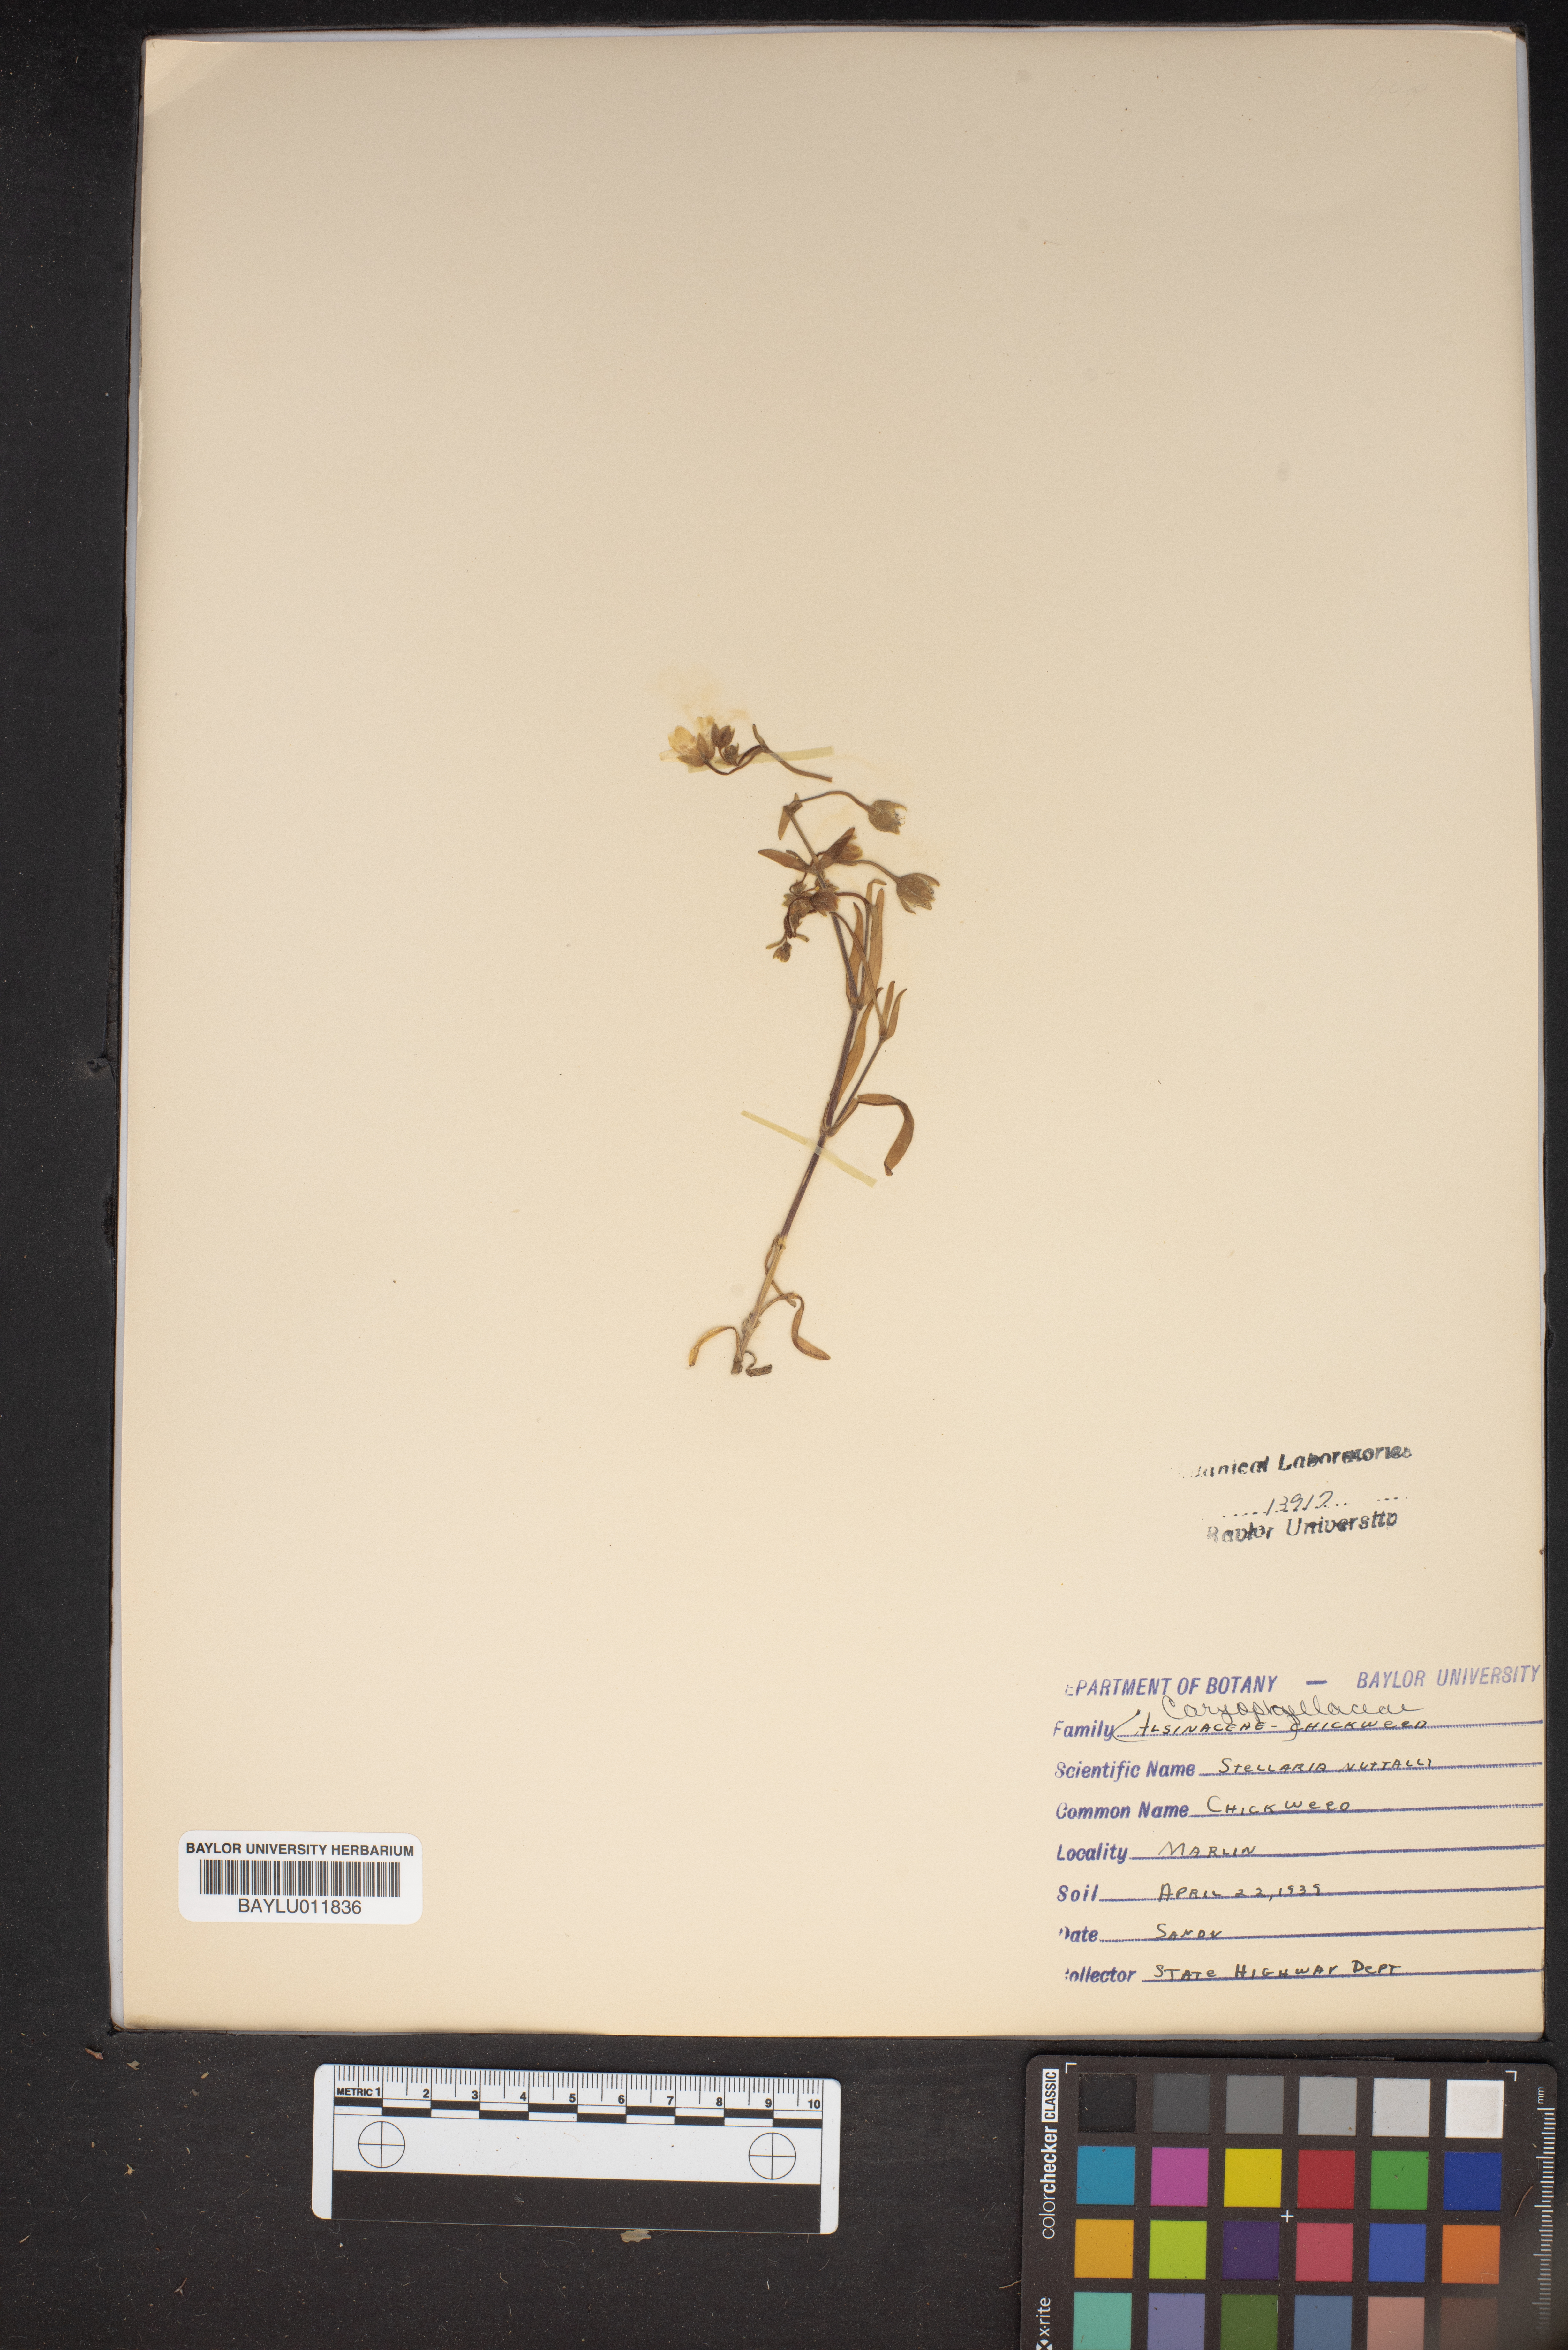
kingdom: Plantae
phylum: Tracheophyta
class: Magnoliopsida
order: Caryophyllales
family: Caryophyllaceae
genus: Geocarpon
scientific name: Geocarpon nuttallii
